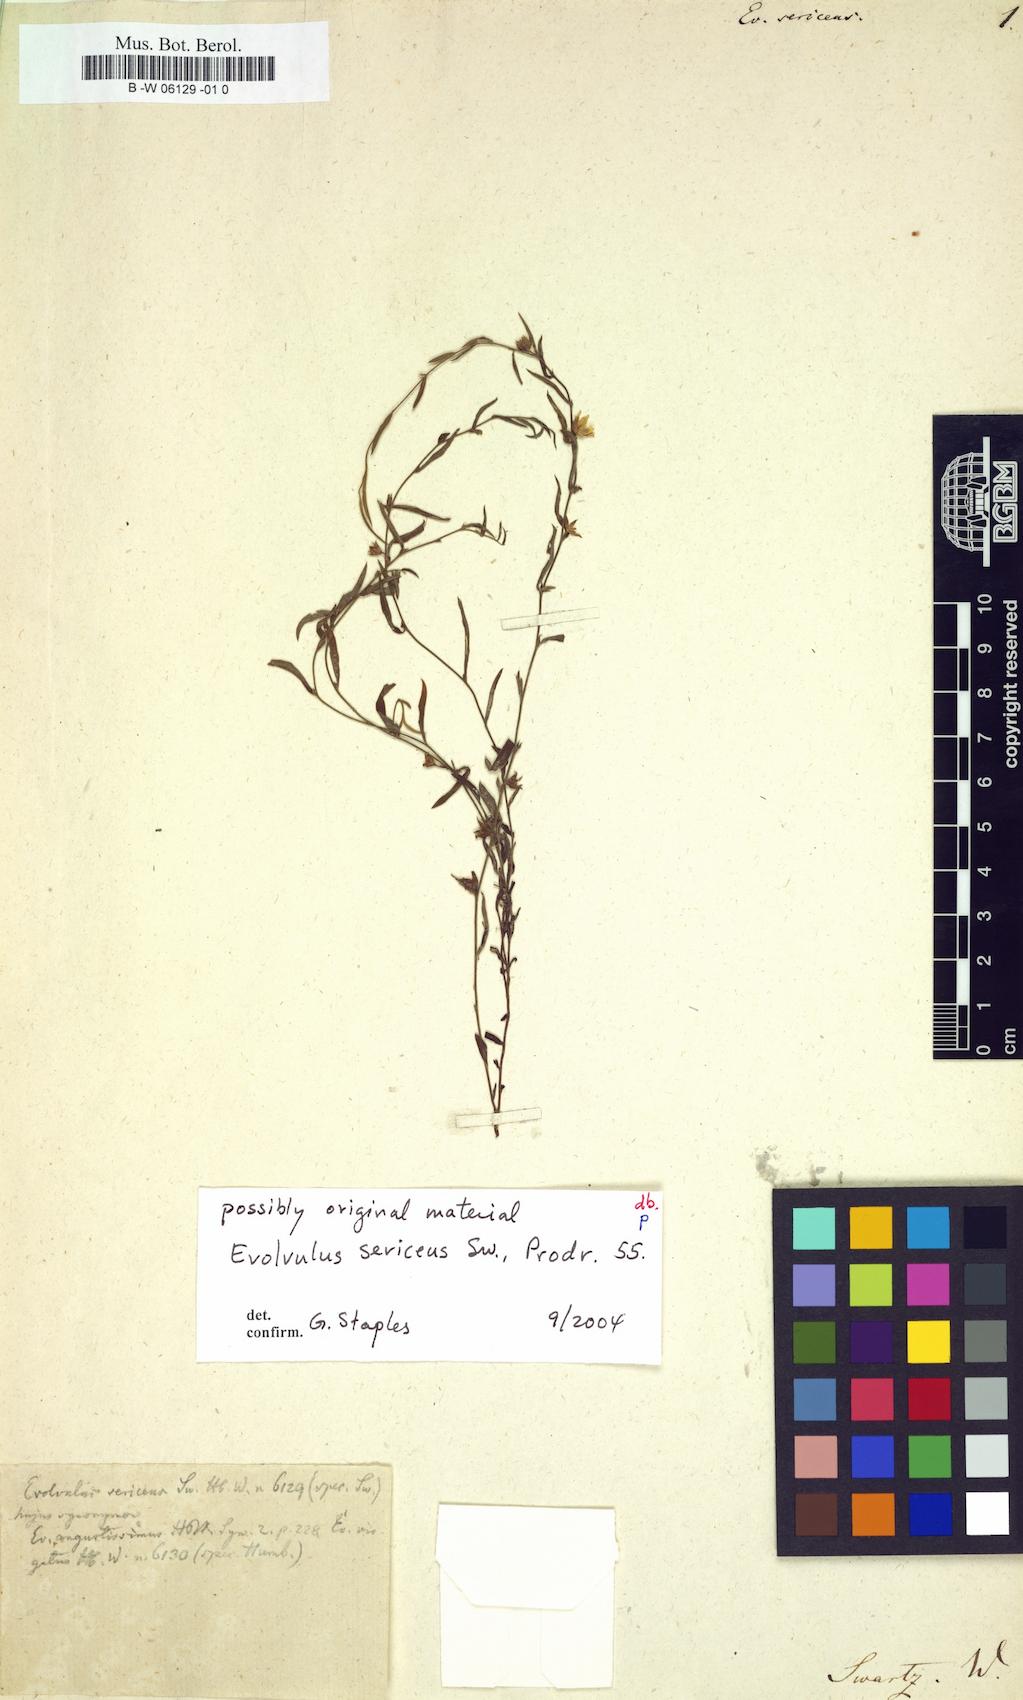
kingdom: Plantae
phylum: Tracheophyta
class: Magnoliopsida
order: Solanales
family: Convolvulaceae
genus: Evolvulus
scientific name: Evolvulus sericeus
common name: Blue dots
